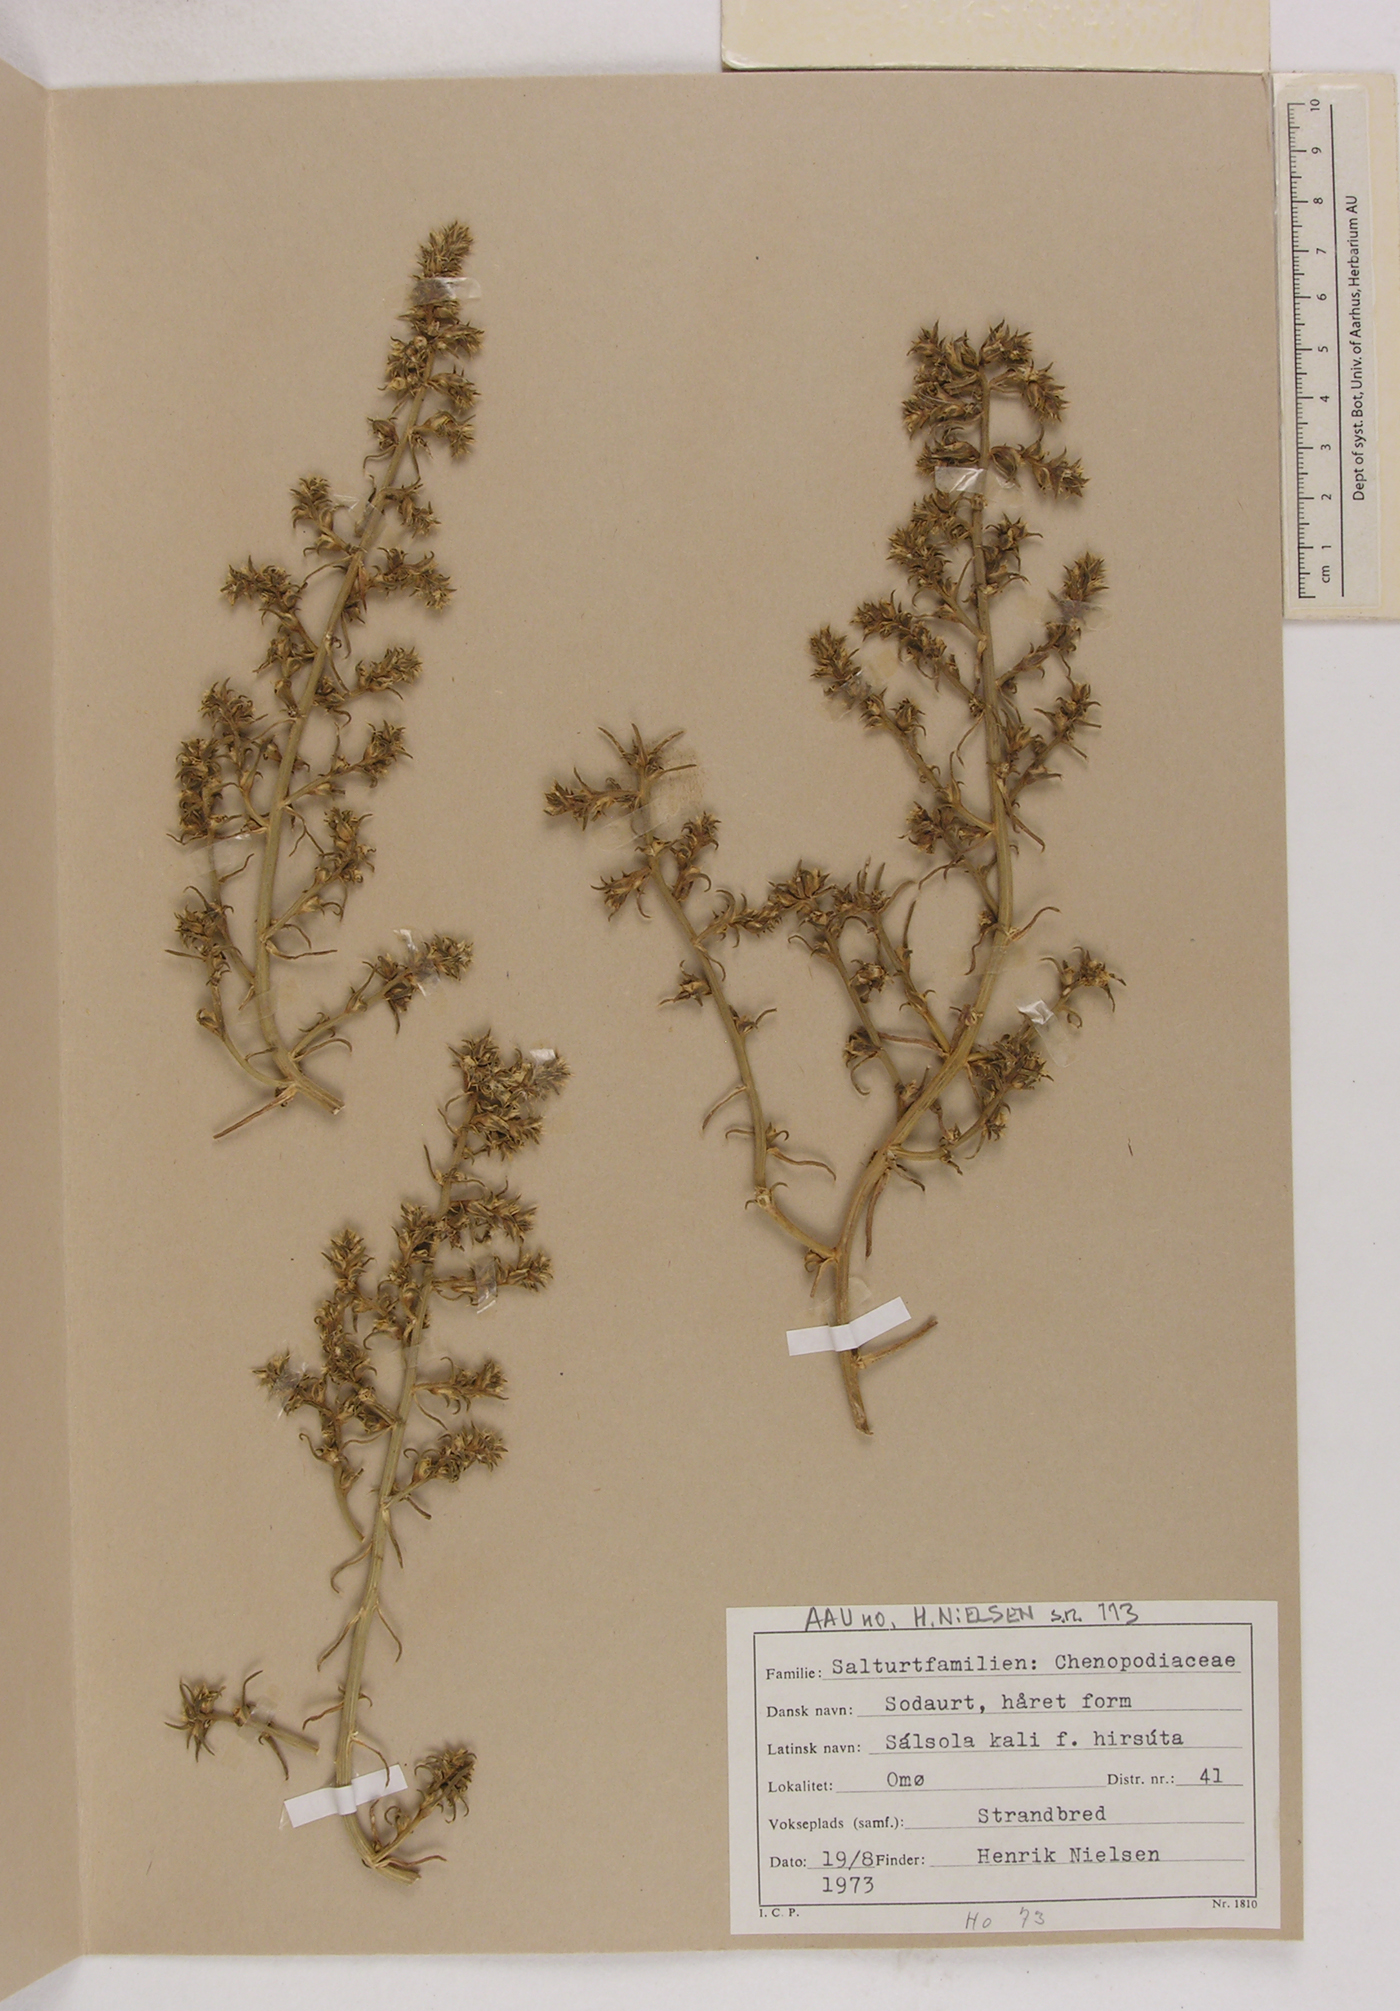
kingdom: Plantae
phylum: Tracheophyta
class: Magnoliopsida
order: Caryophyllales
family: Amaranthaceae
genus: Salsola
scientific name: Salsola kali
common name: Saltwort
